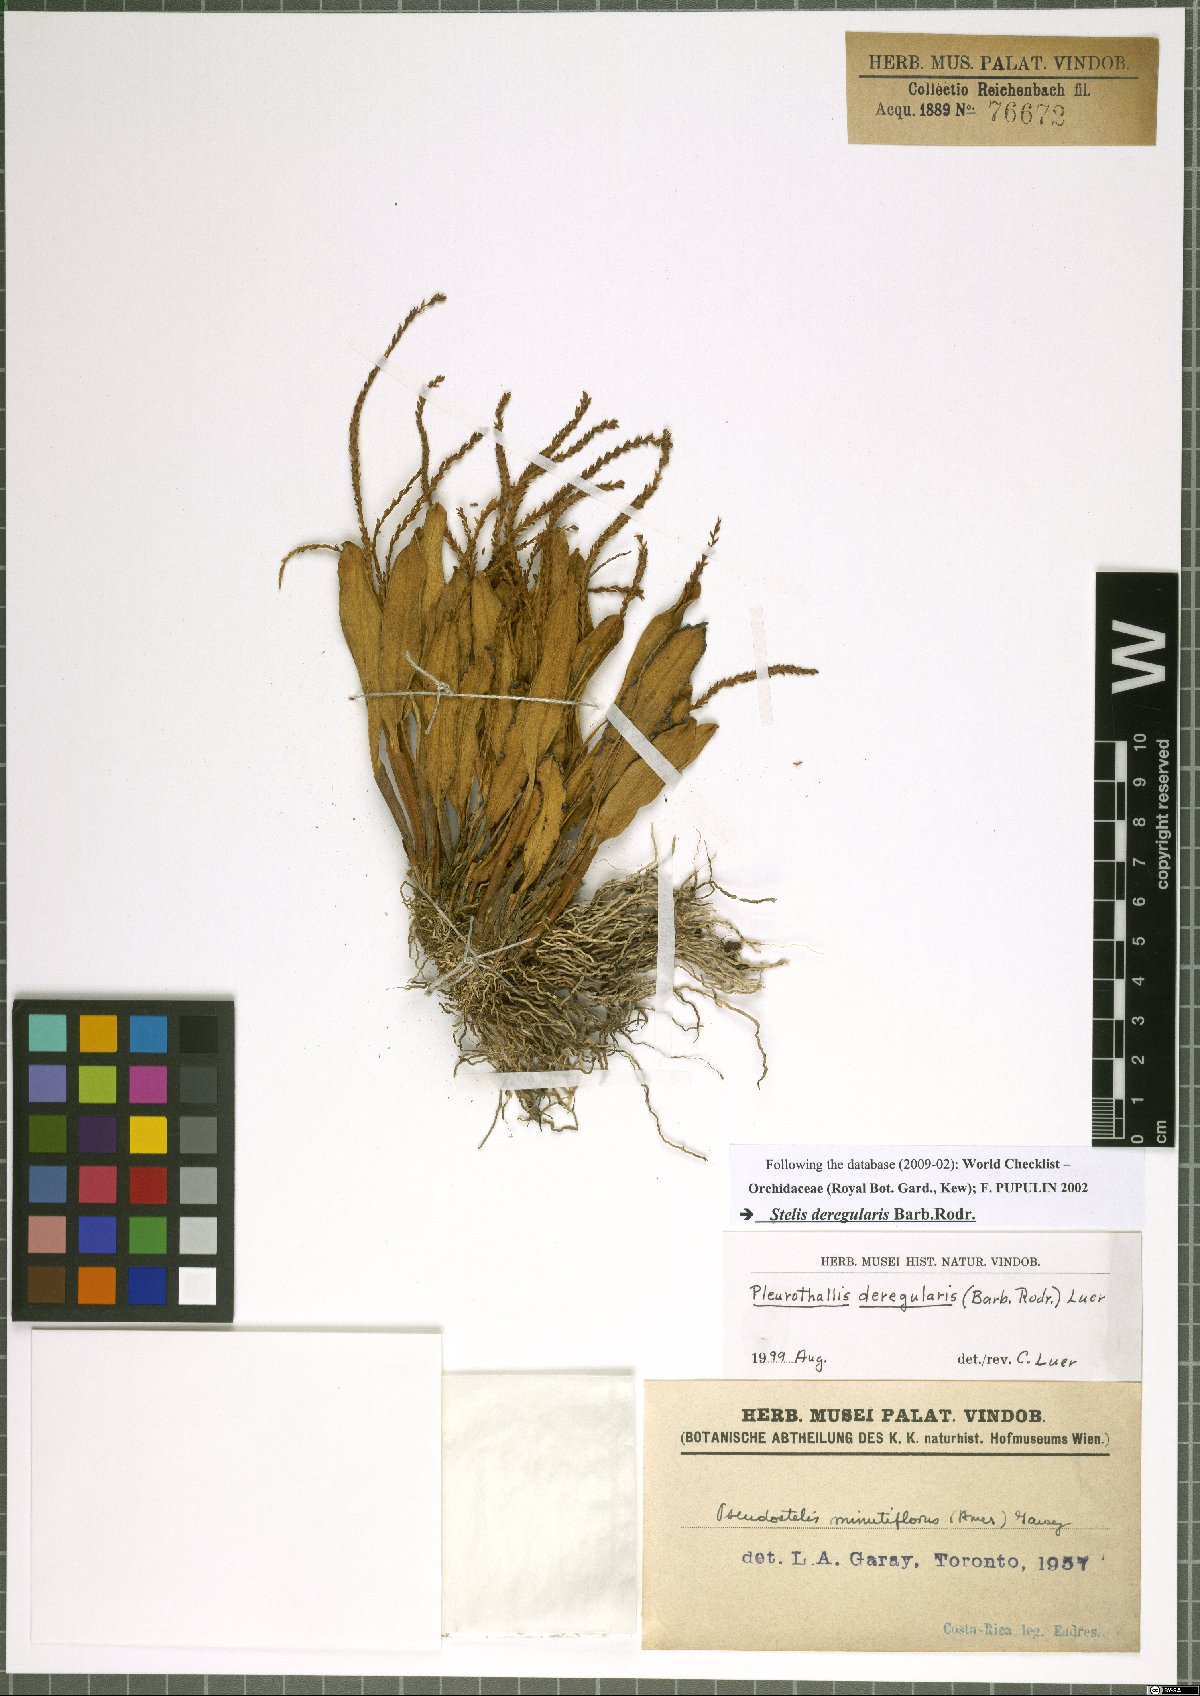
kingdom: Plantae
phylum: Tracheophyta
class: Liliopsida
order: Asparagales
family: Orchidaceae
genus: Stelis
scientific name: Stelis deregularis
